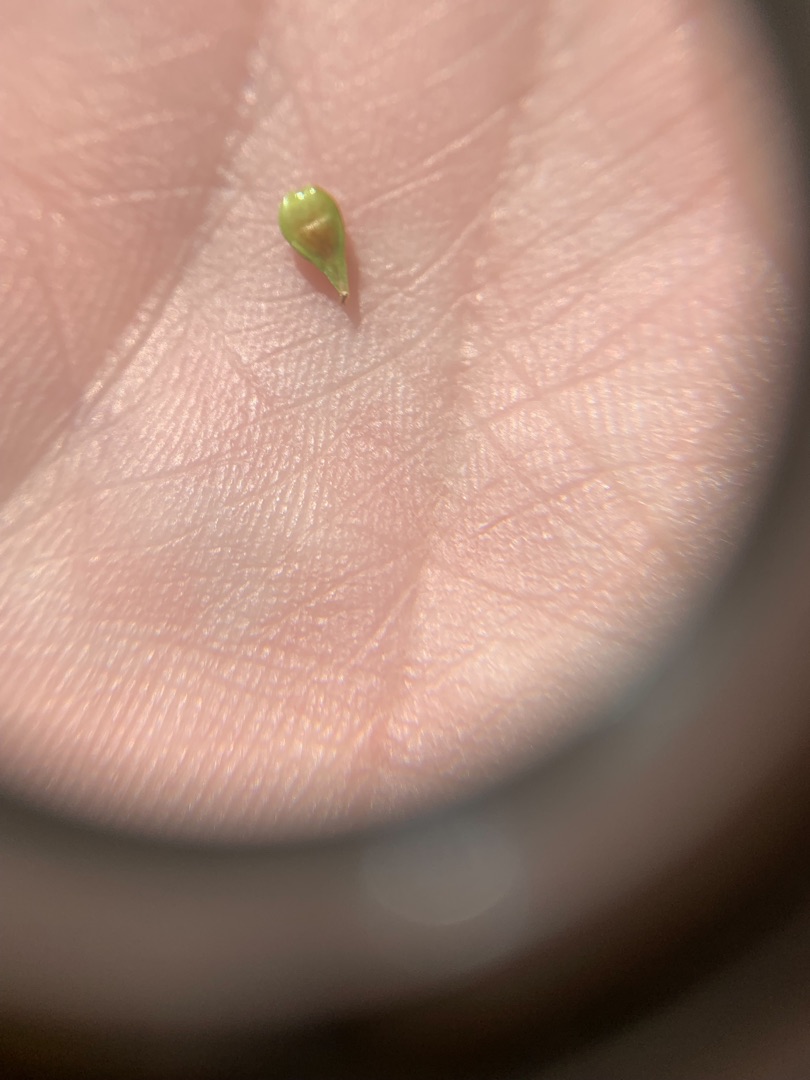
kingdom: Plantae
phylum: Tracheophyta
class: Liliopsida
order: Poales
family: Cyperaceae
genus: Carex
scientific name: Carex spicata
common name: Spidskapslet star
